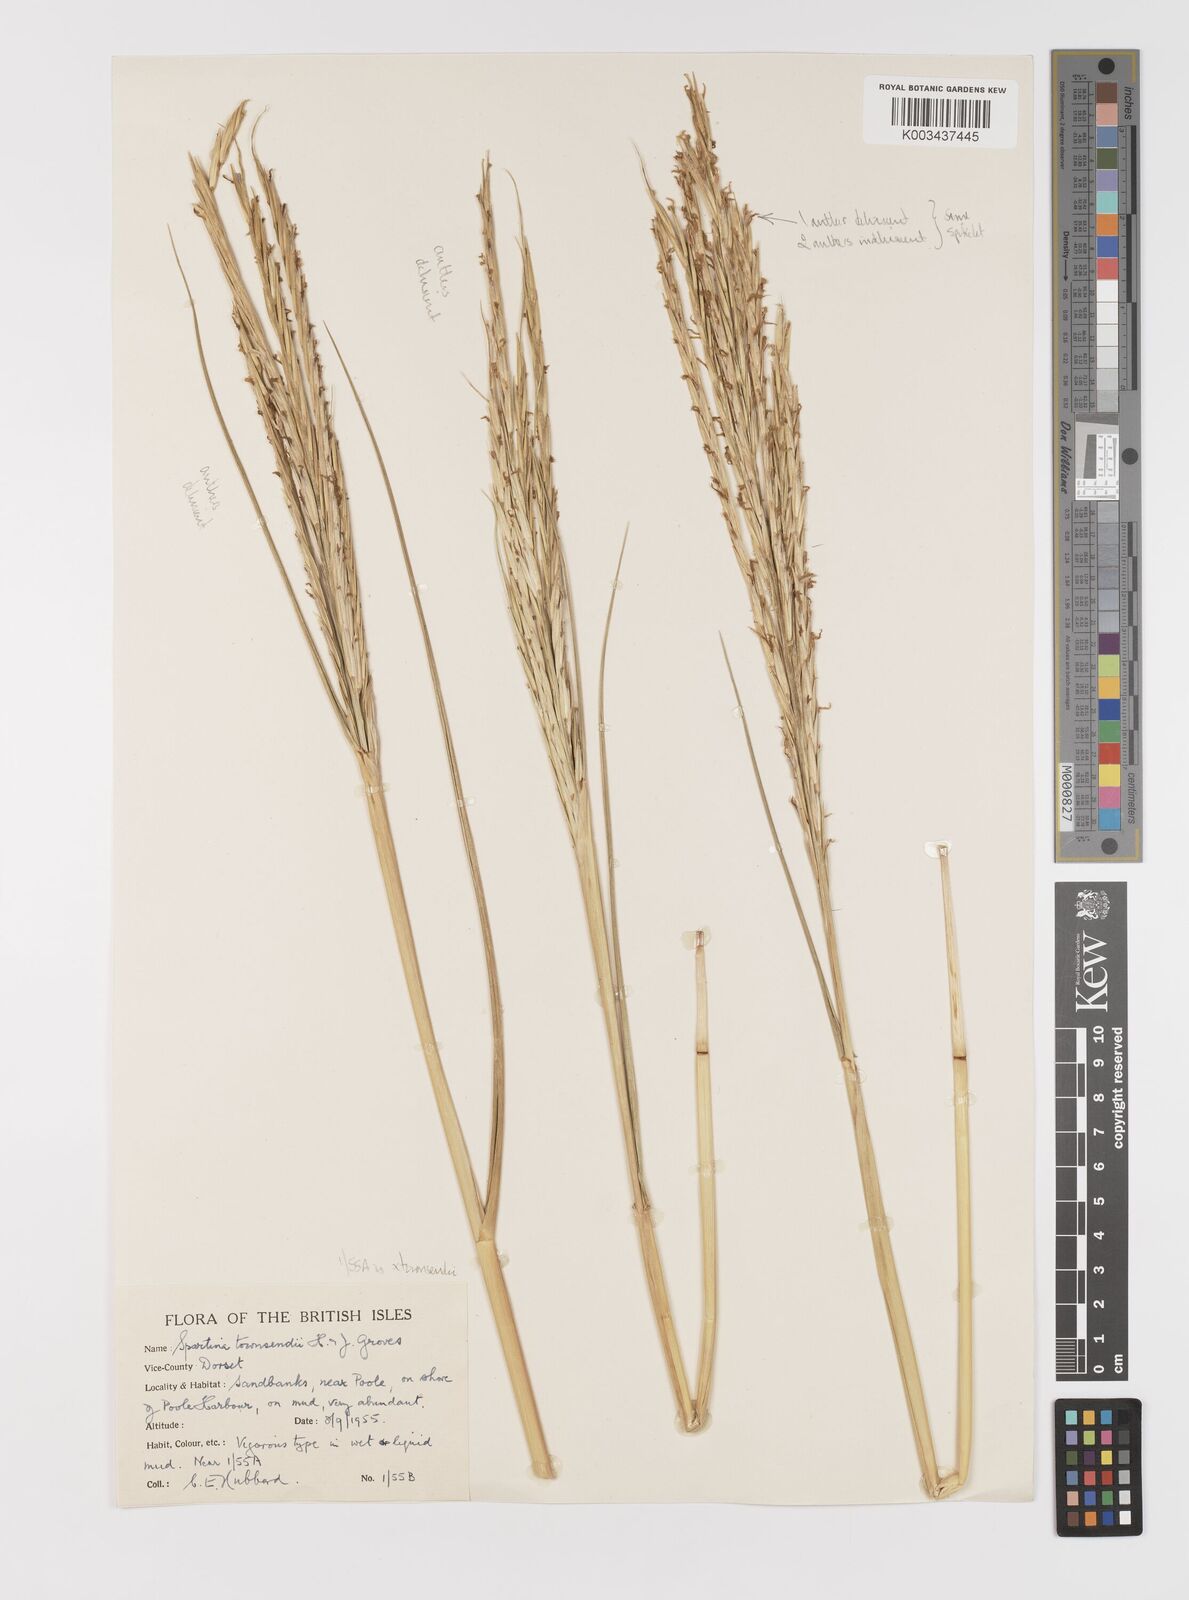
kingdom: Plantae
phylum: Tracheophyta
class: Liliopsida
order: Poales
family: Poaceae
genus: Sporobolus
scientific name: Sporobolus anglicus
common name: English cordgrass
